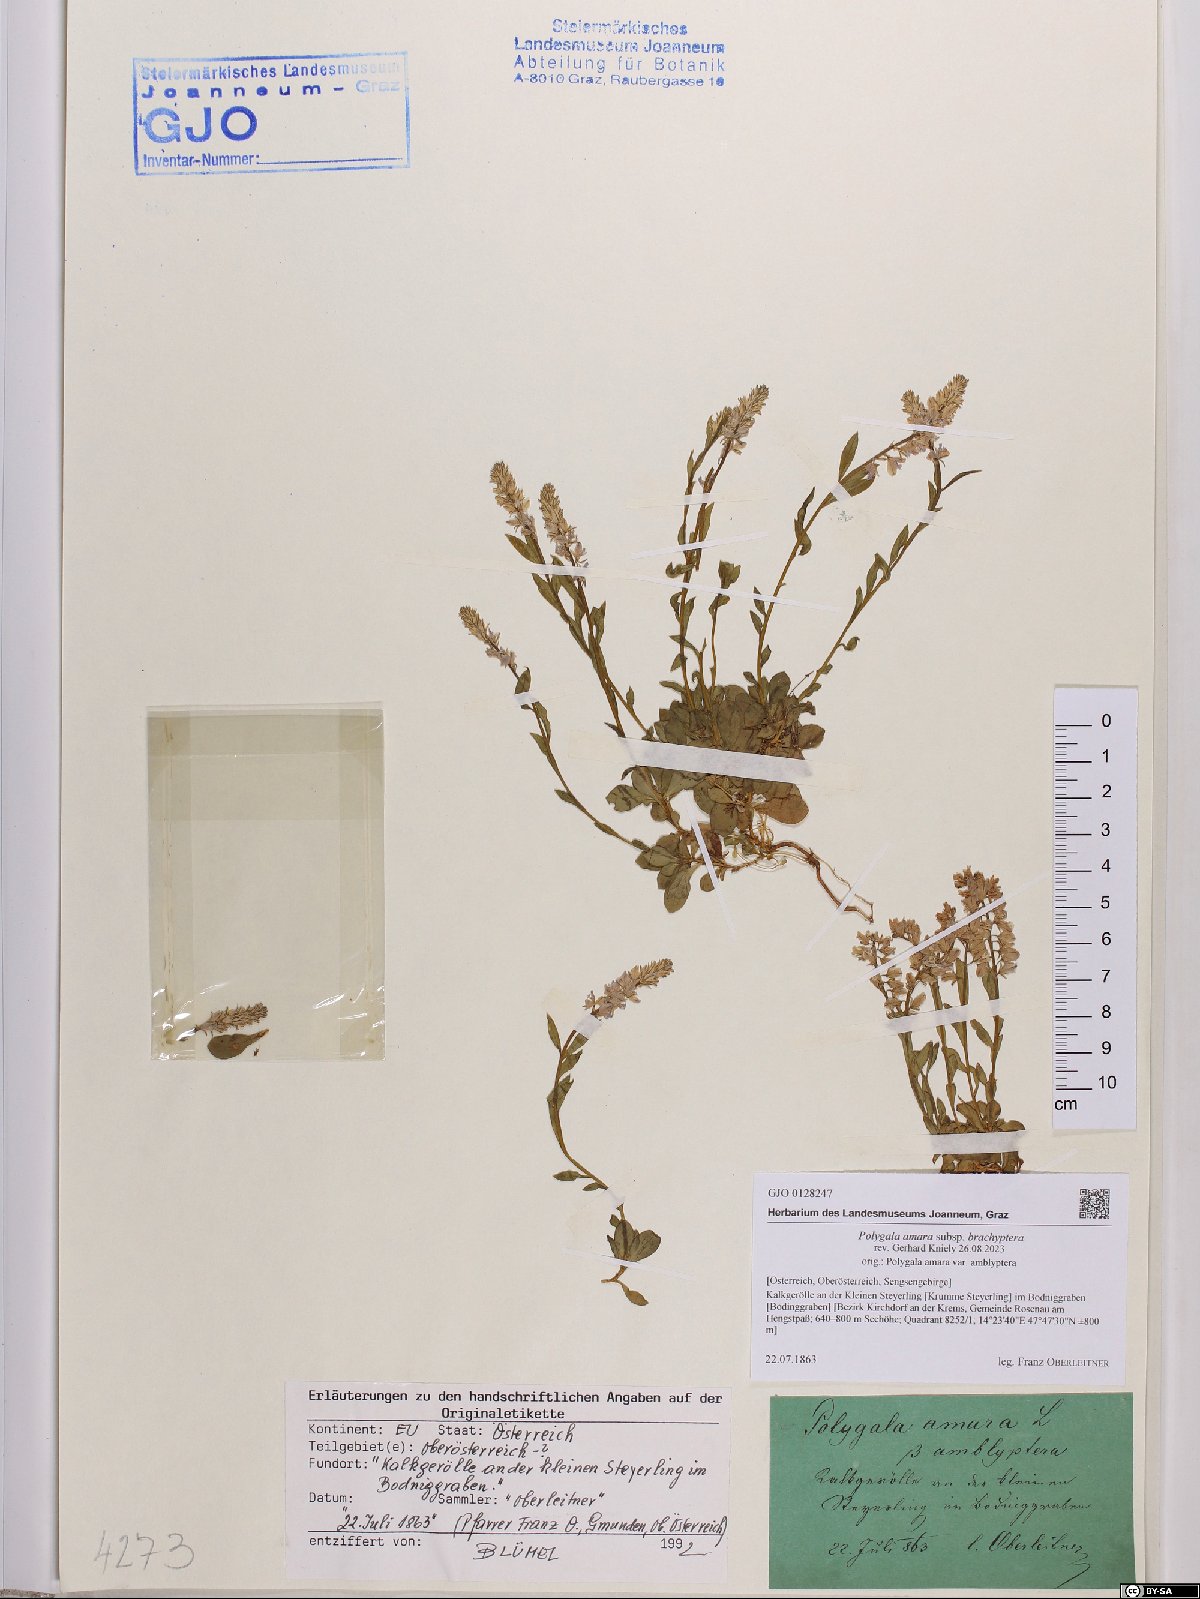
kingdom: Plantae
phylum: Tracheophyta
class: Magnoliopsida
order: Fabales
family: Polygalaceae
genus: Polygala
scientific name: Polygala amara
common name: Milkwort
